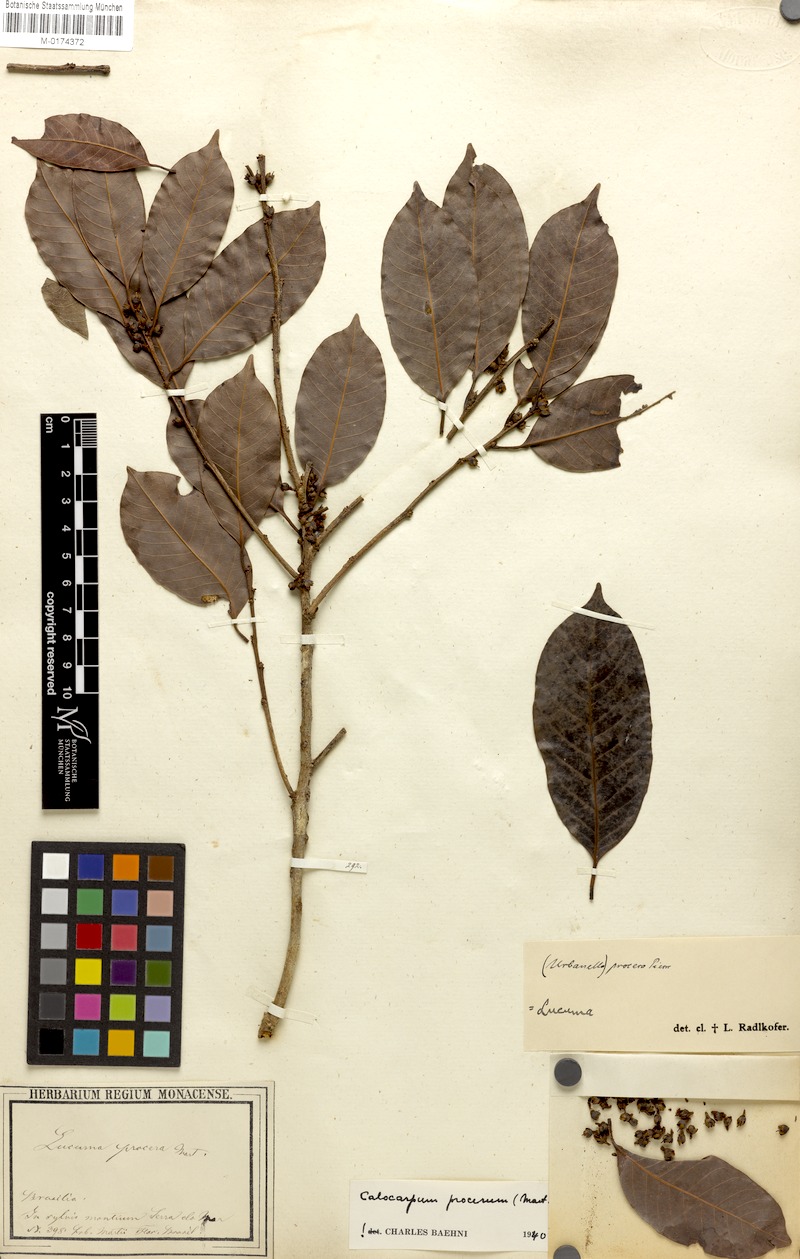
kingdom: Plantae
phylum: Tracheophyta
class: Magnoliopsida
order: Ericales
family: Sapotaceae
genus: Pouteria
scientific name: Pouteria procera
